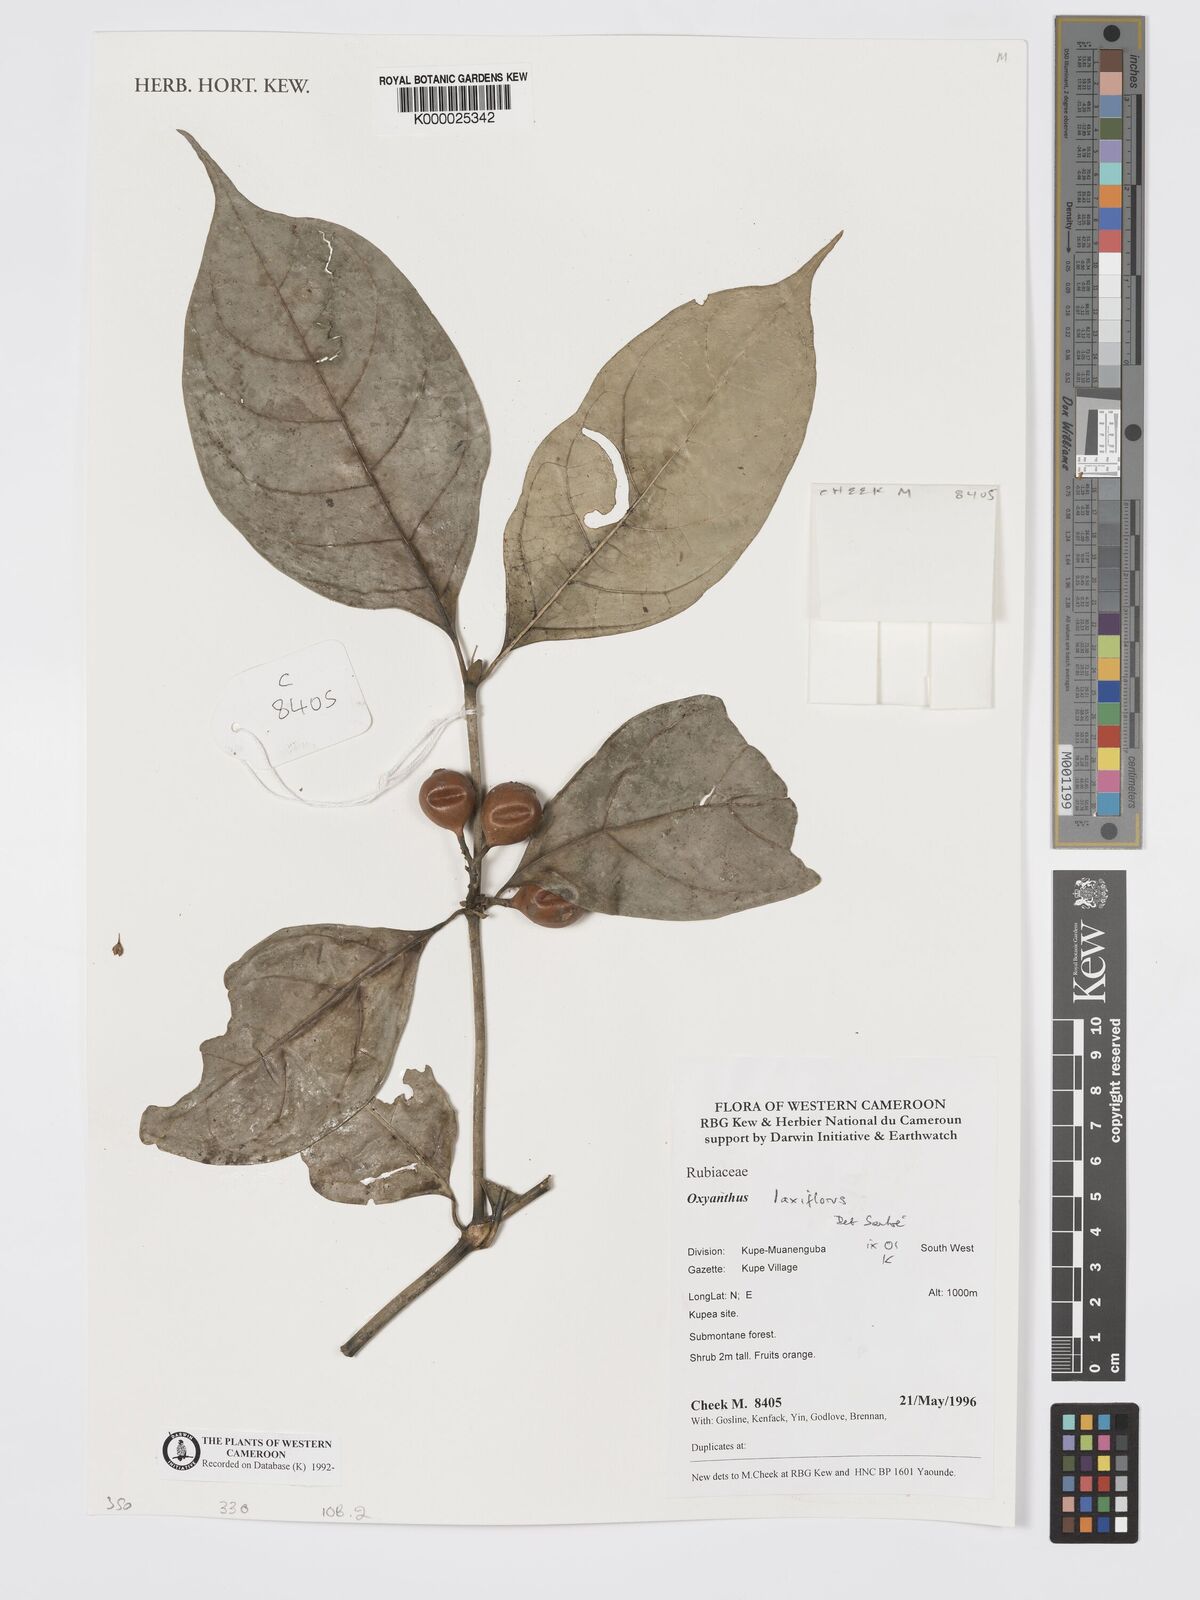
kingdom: Plantae
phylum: Tracheophyta
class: Magnoliopsida
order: Gentianales
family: Rubiaceae
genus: Oxyanthus
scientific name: Oxyanthus laxiflorus
